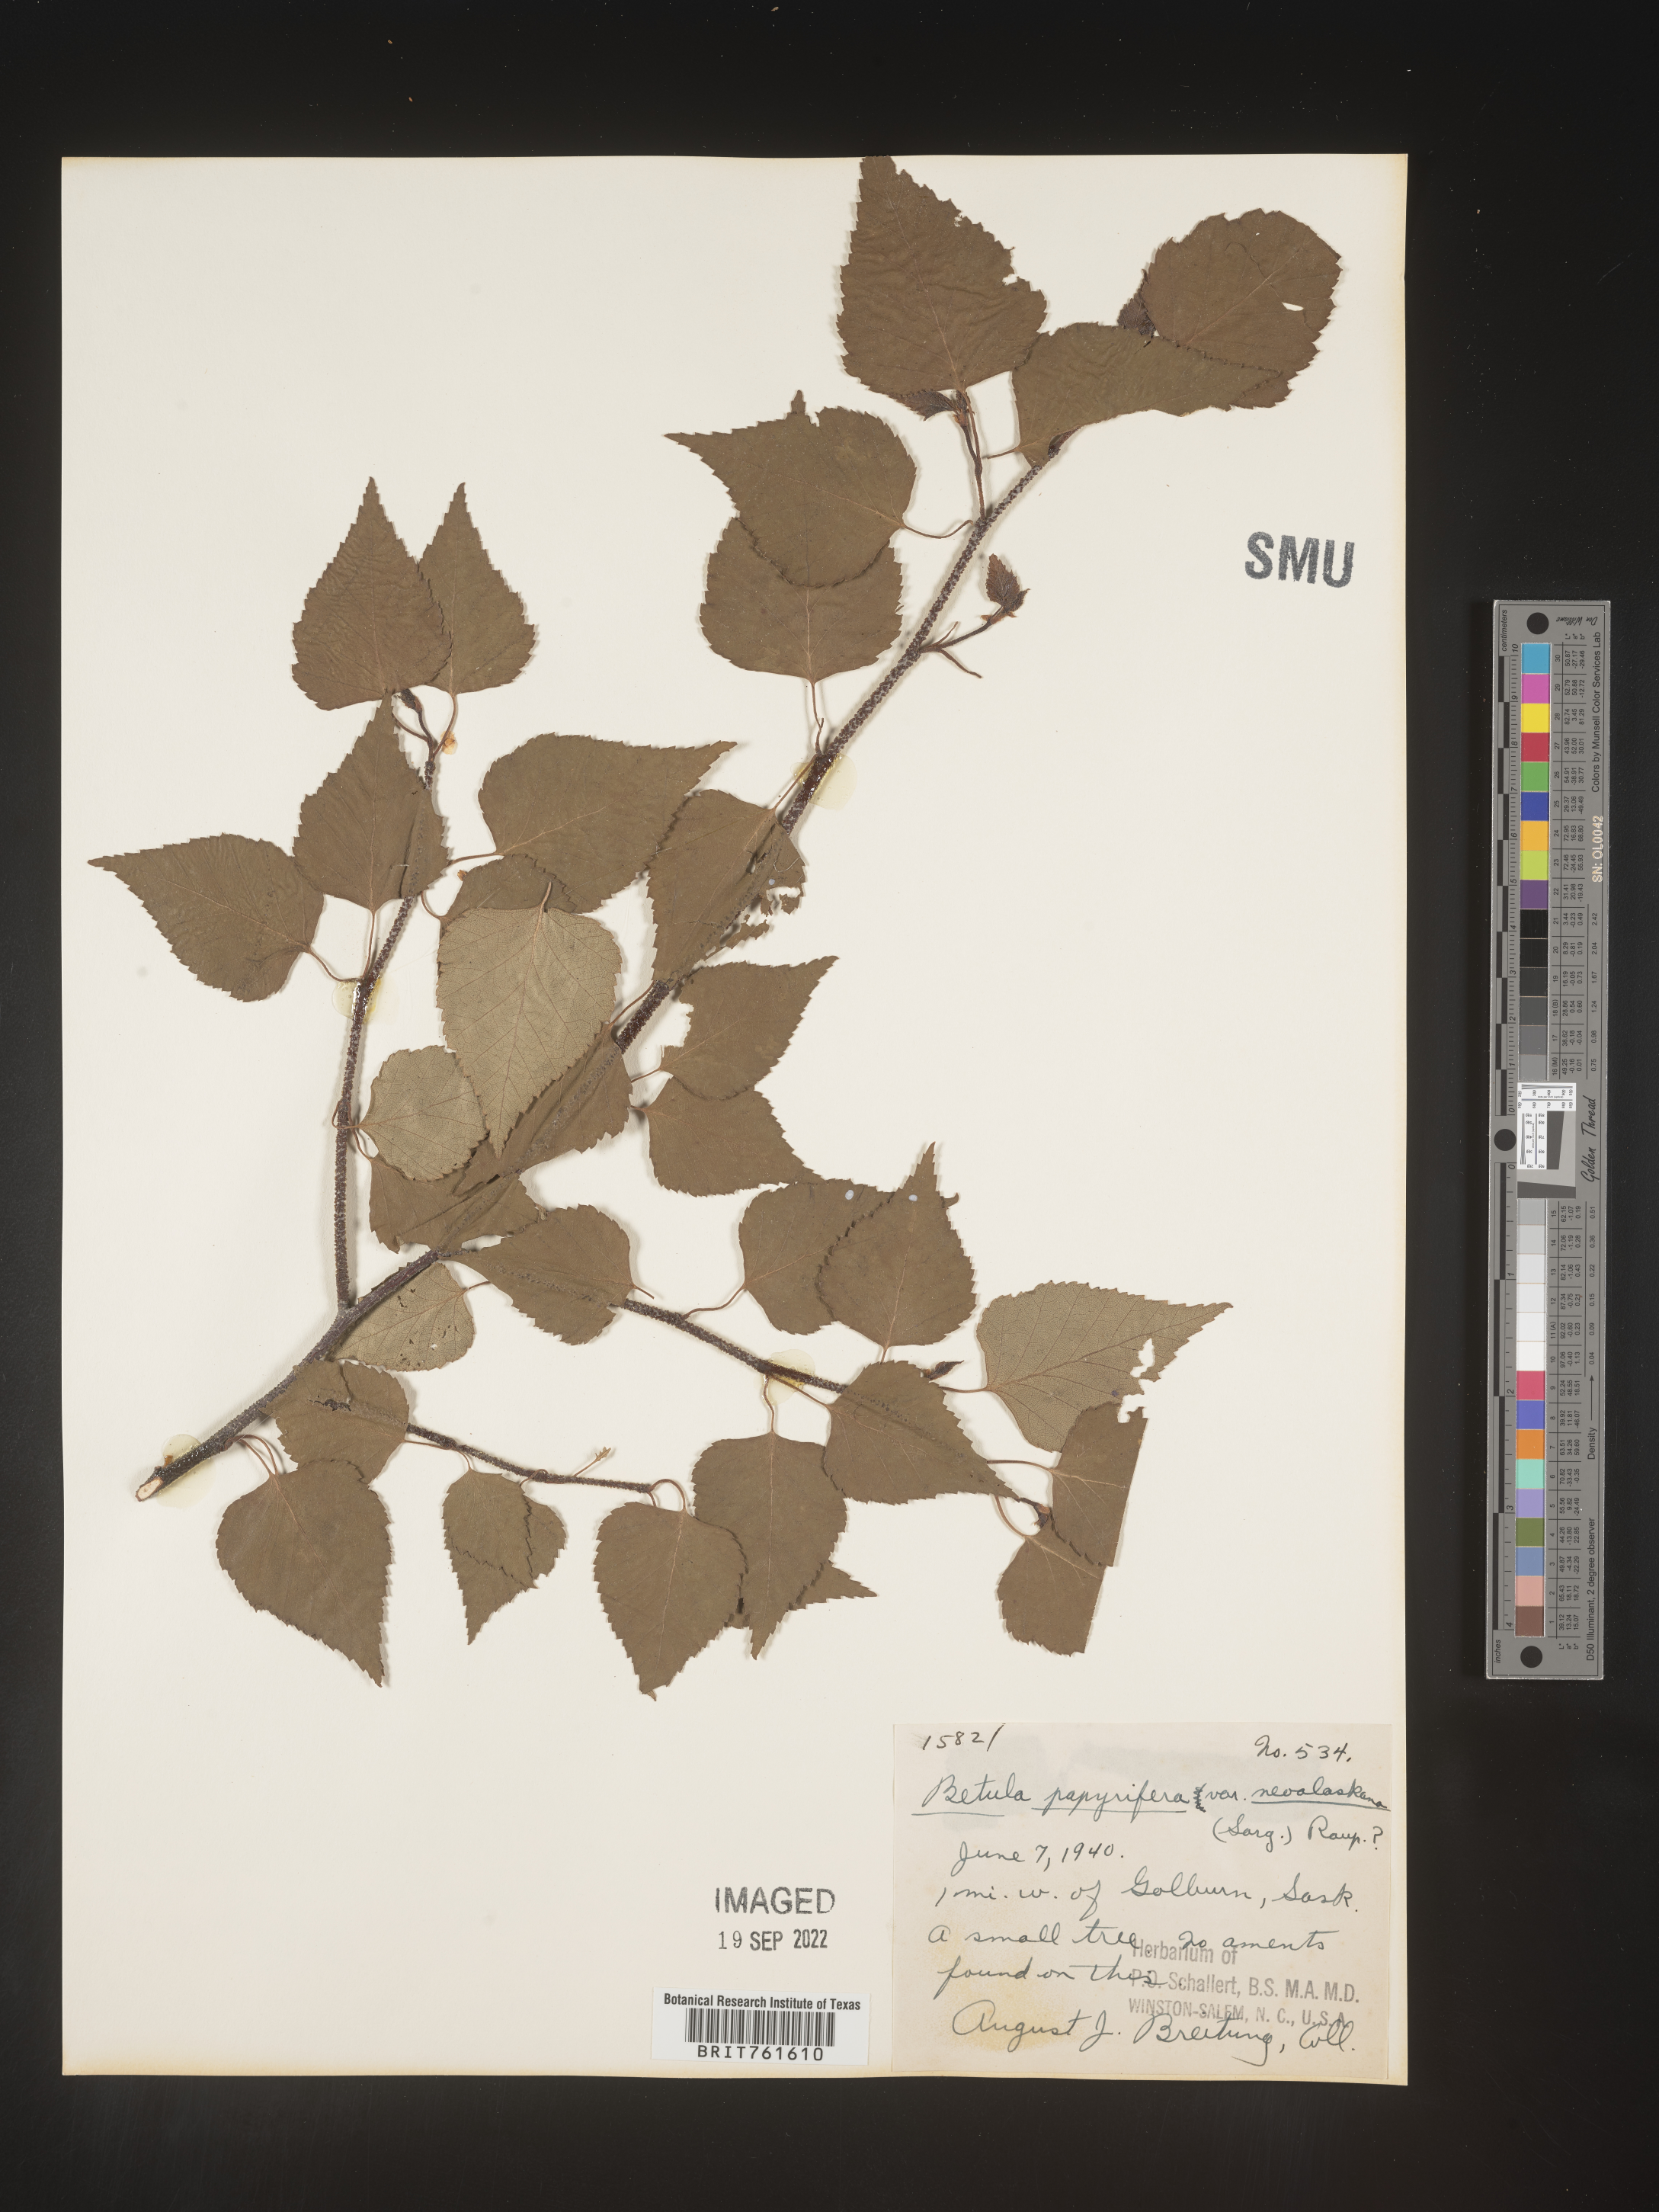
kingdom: Plantae
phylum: Tracheophyta
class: Magnoliopsida
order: Fagales
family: Betulaceae
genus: Betula
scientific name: Betula pendula
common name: Silver birch
